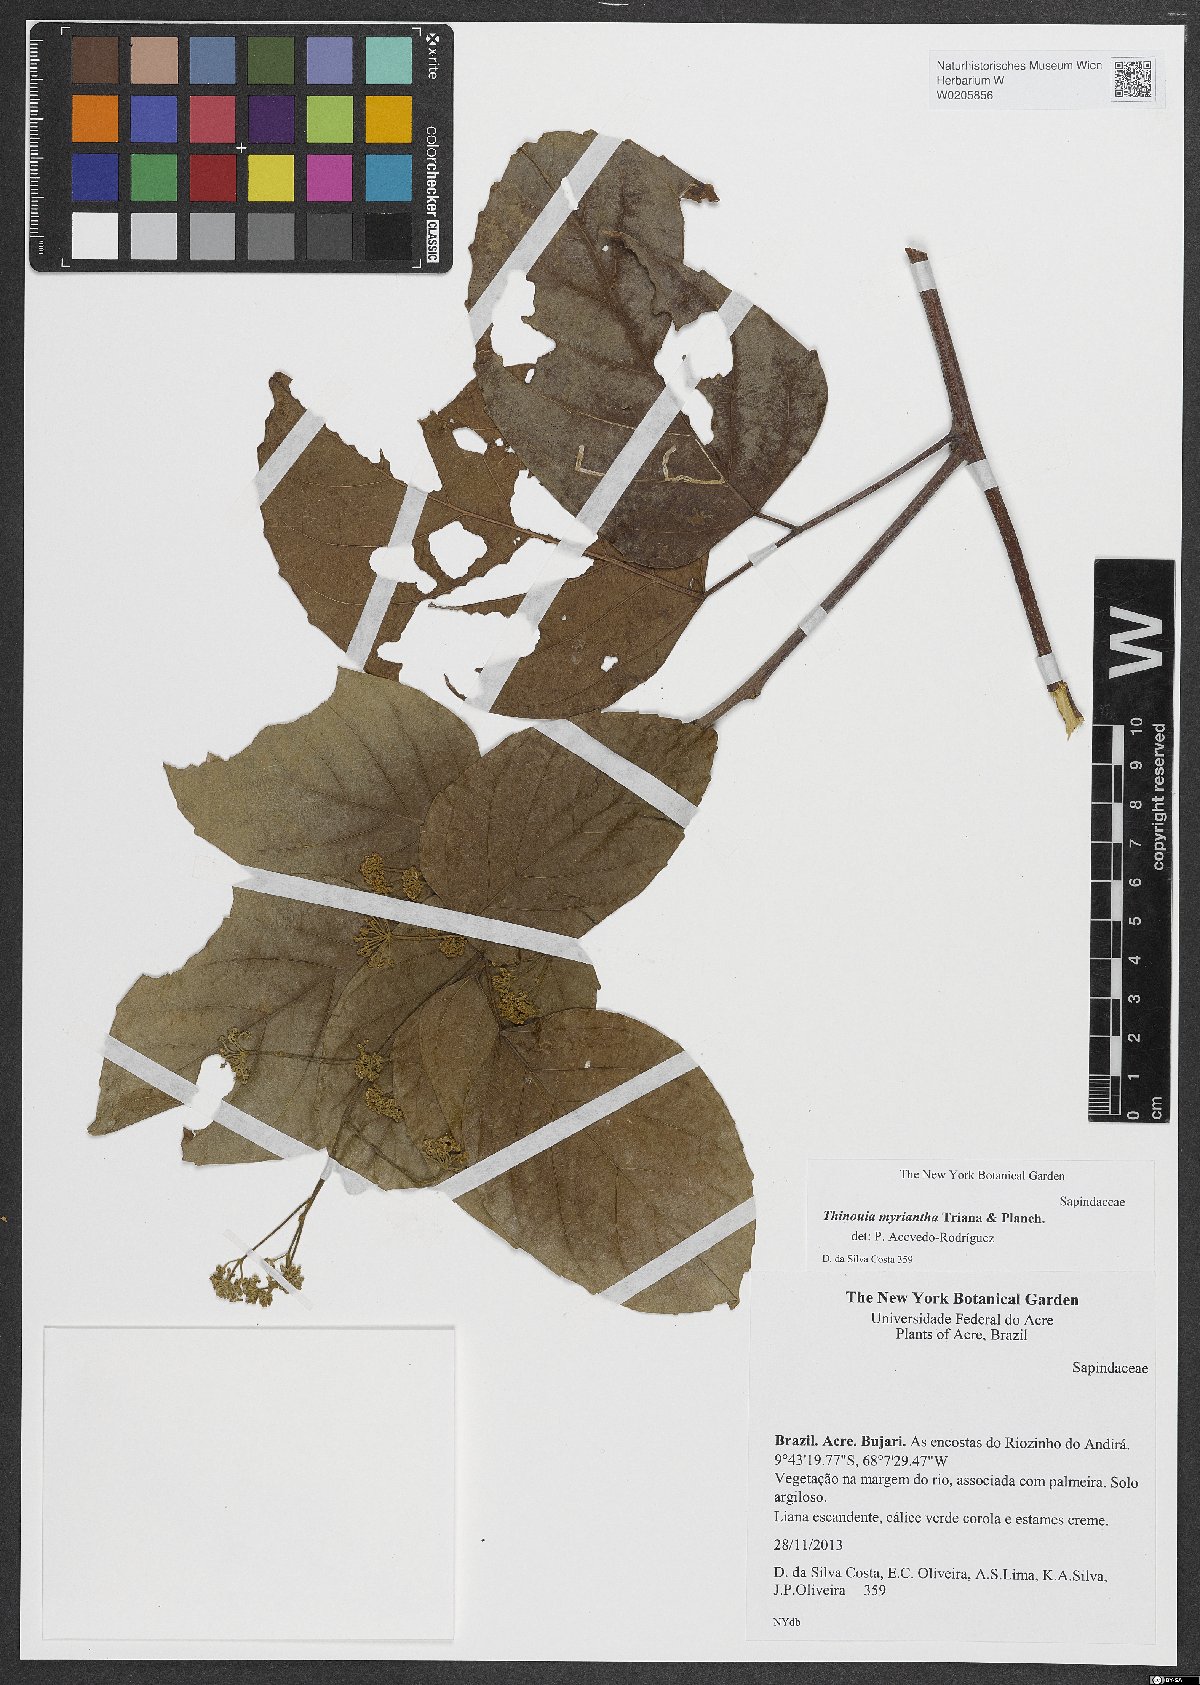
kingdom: Plantae
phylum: Tracheophyta
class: Magnoliopsida
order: Sapindales
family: Sapindaceae
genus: Thinouia
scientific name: Thinouia myriantha
